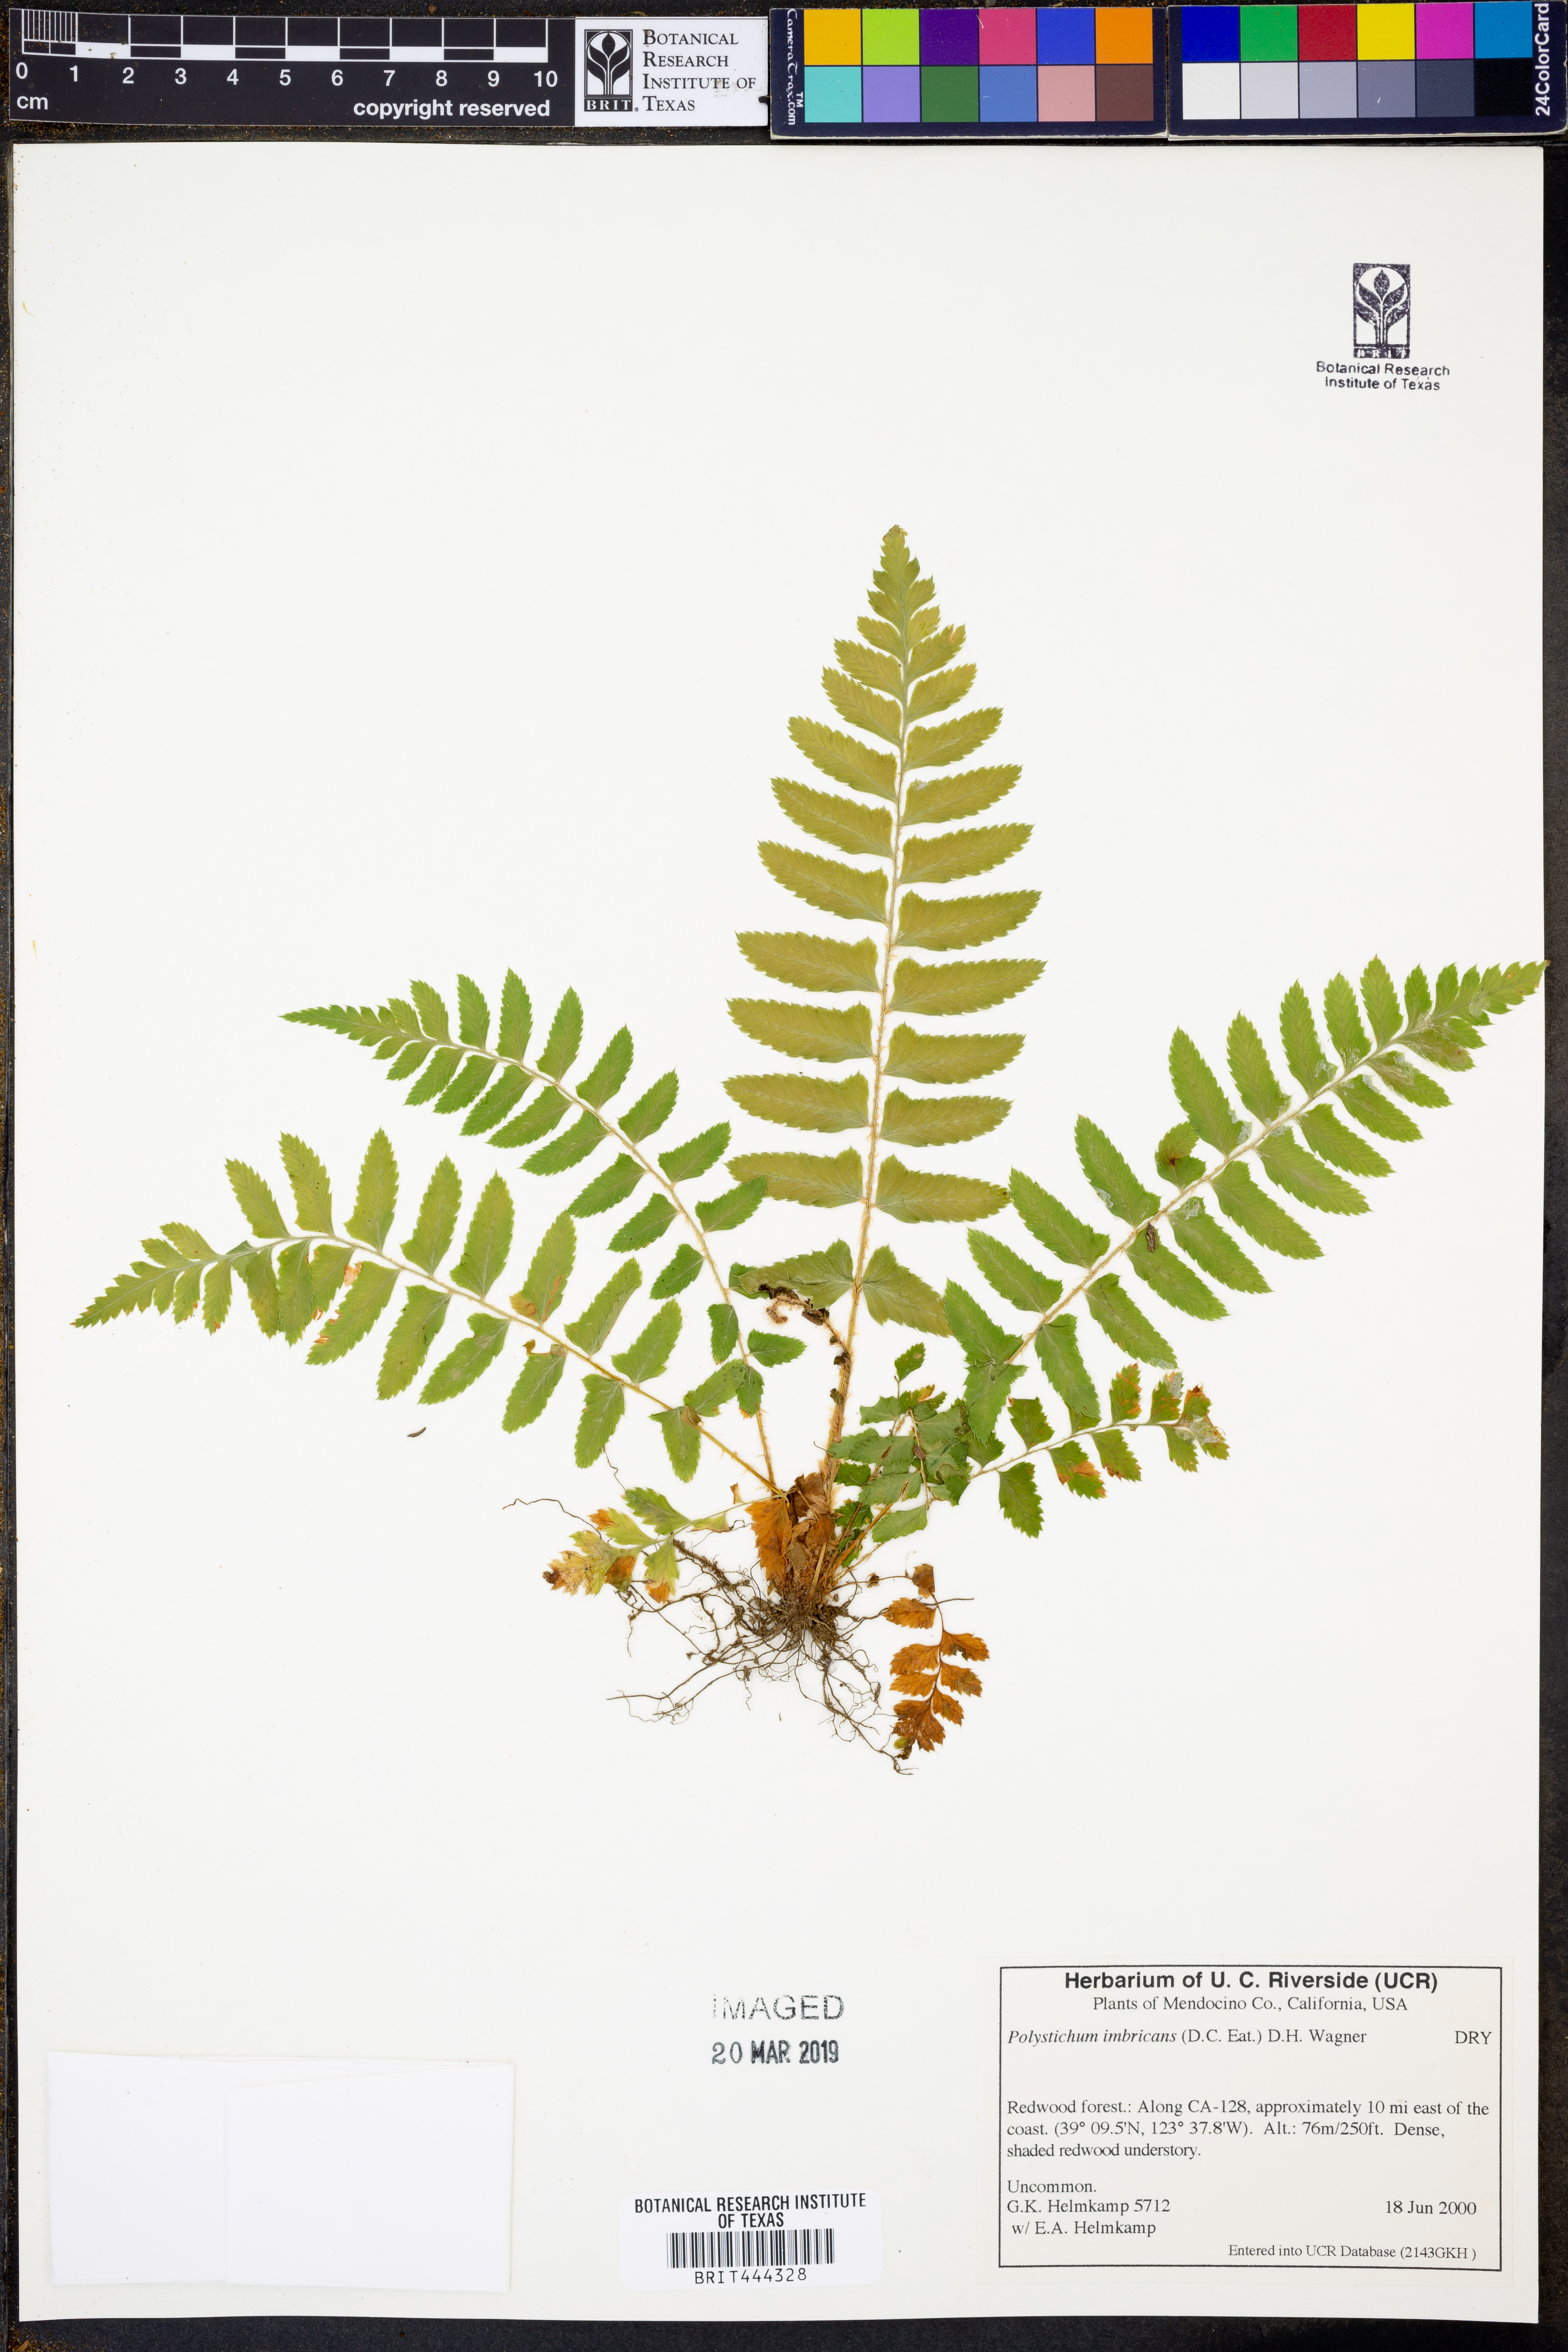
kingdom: Plantae
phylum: Tracheophyta
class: Polypodiopsida
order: Polypodiales
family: Dryopteridaceae
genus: Polystichum
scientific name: Polystichum imbricans
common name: Dwarf western sword fern
